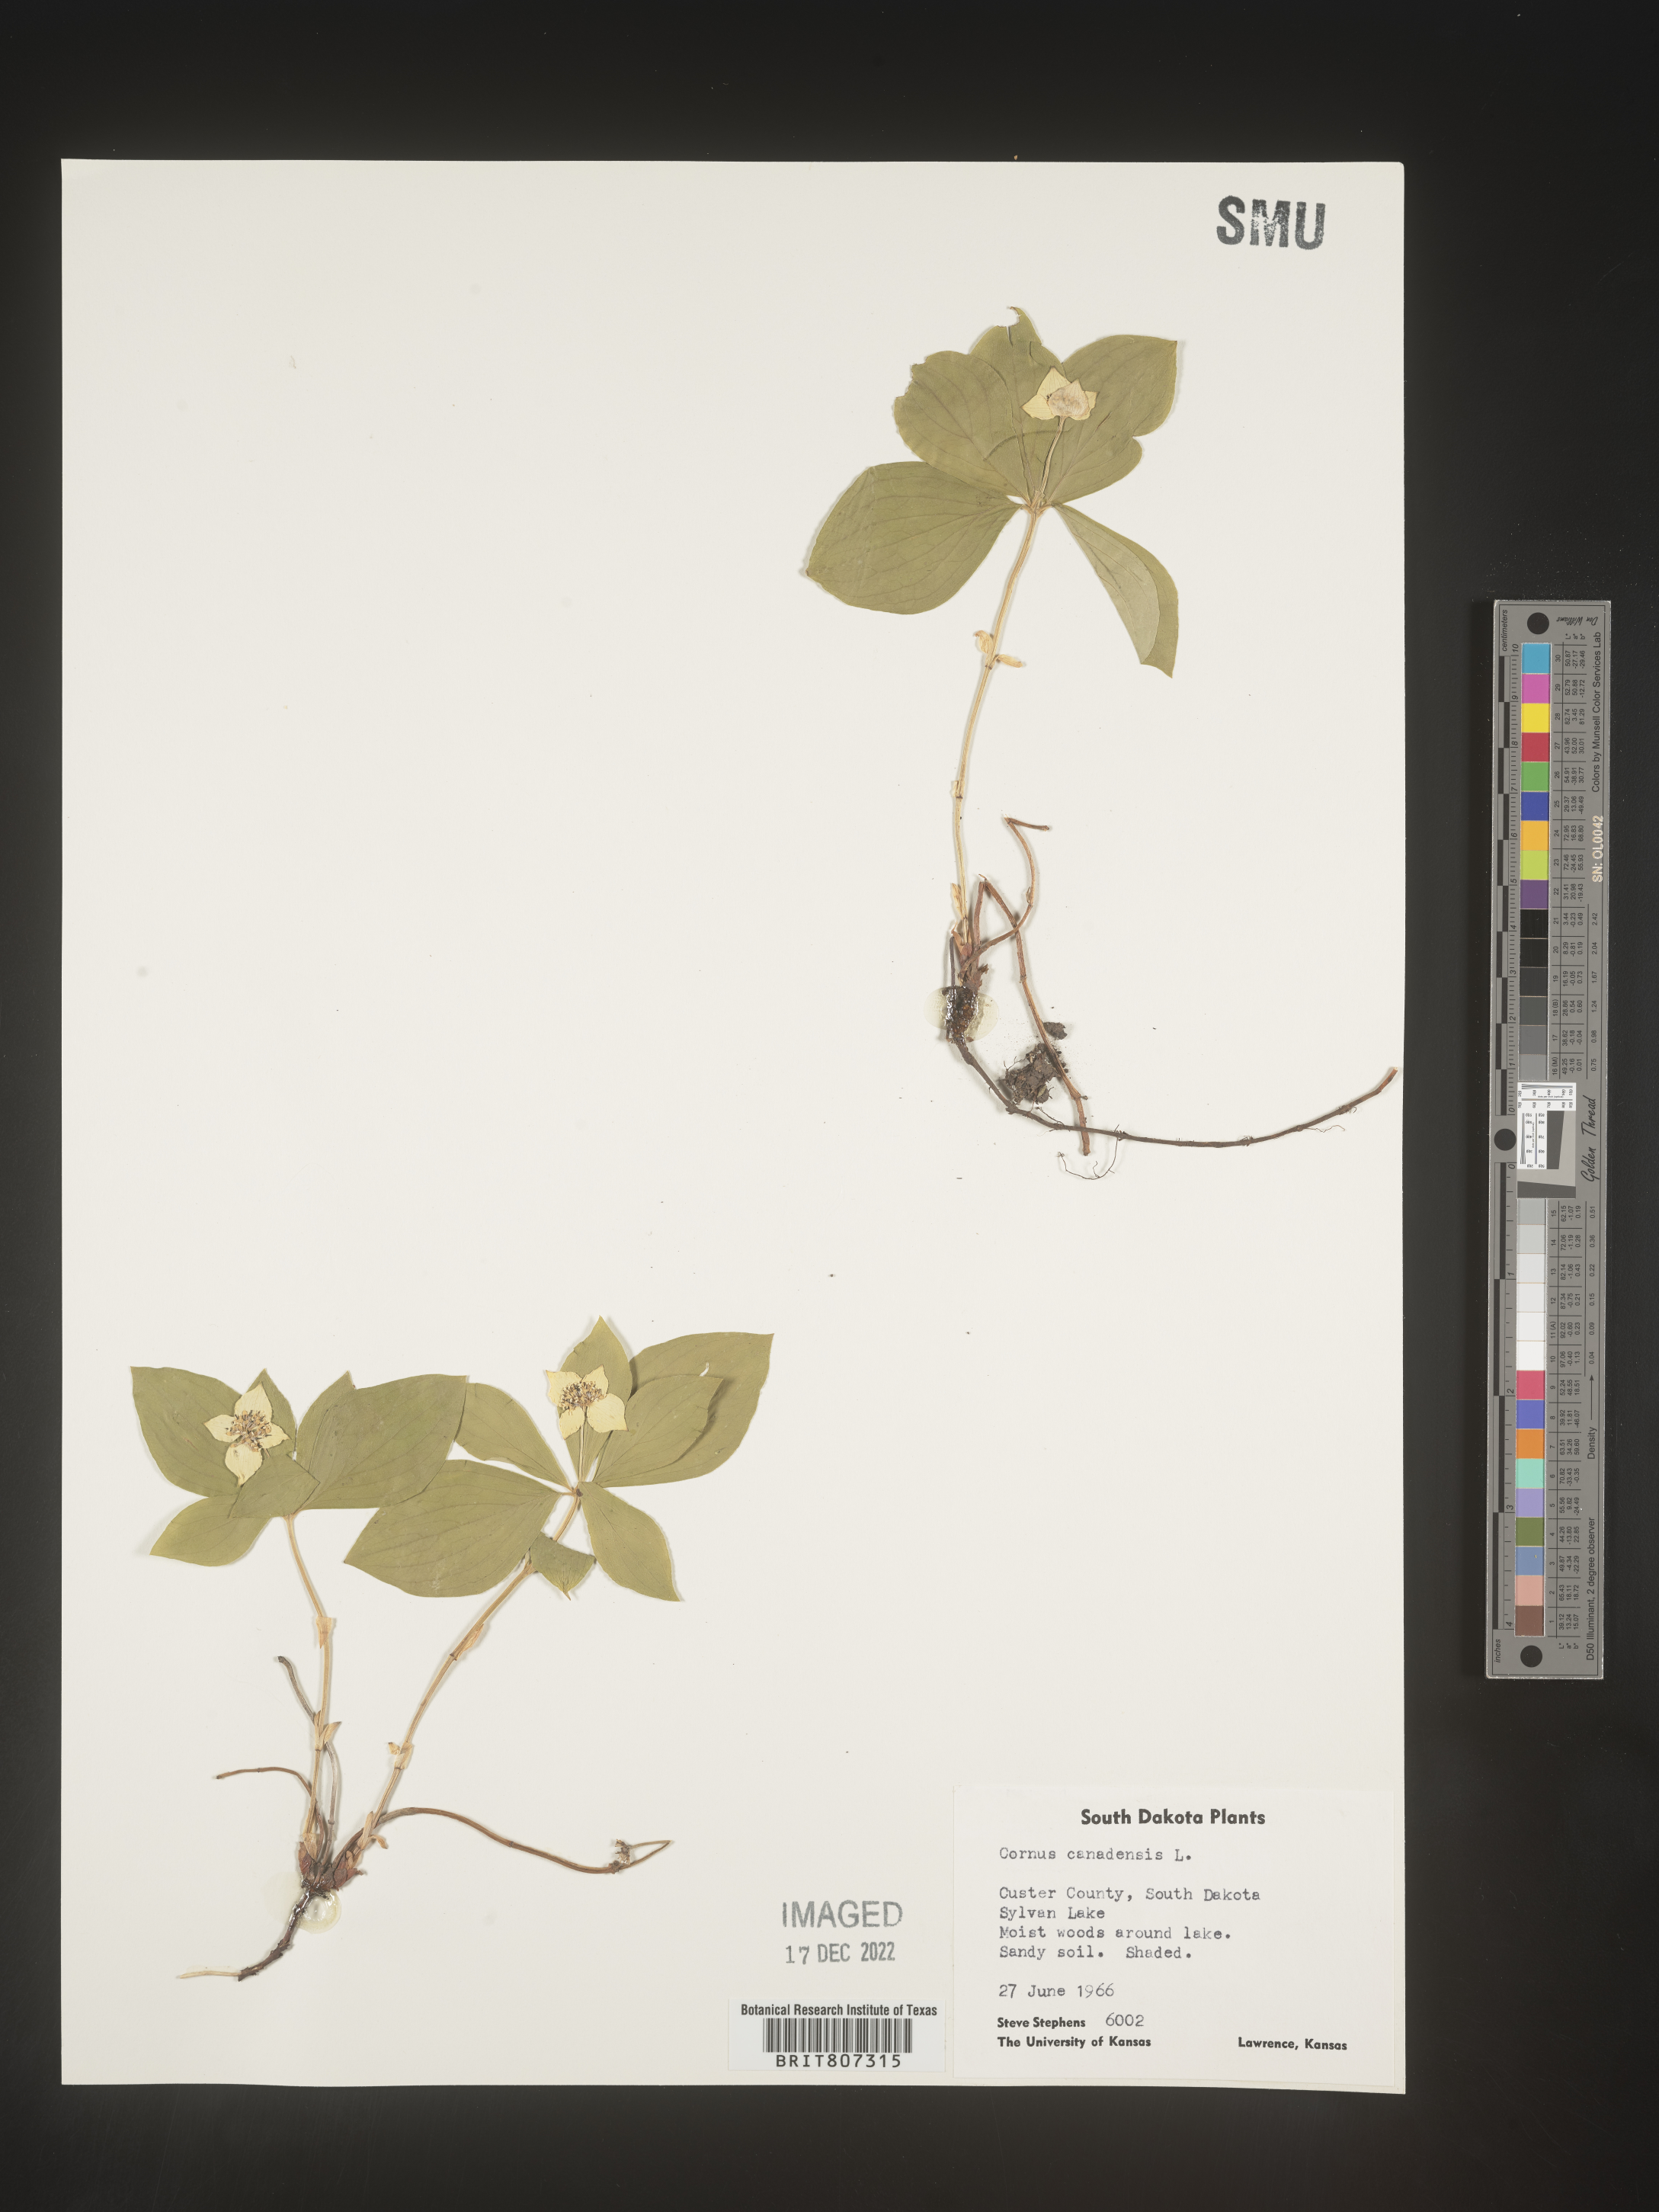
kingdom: Plantae
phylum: Tracheophyta
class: Magnoliopsida
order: Cornales
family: Cornaceae
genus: Cornus
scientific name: Cornus canadensis
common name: Creeping dogwood
